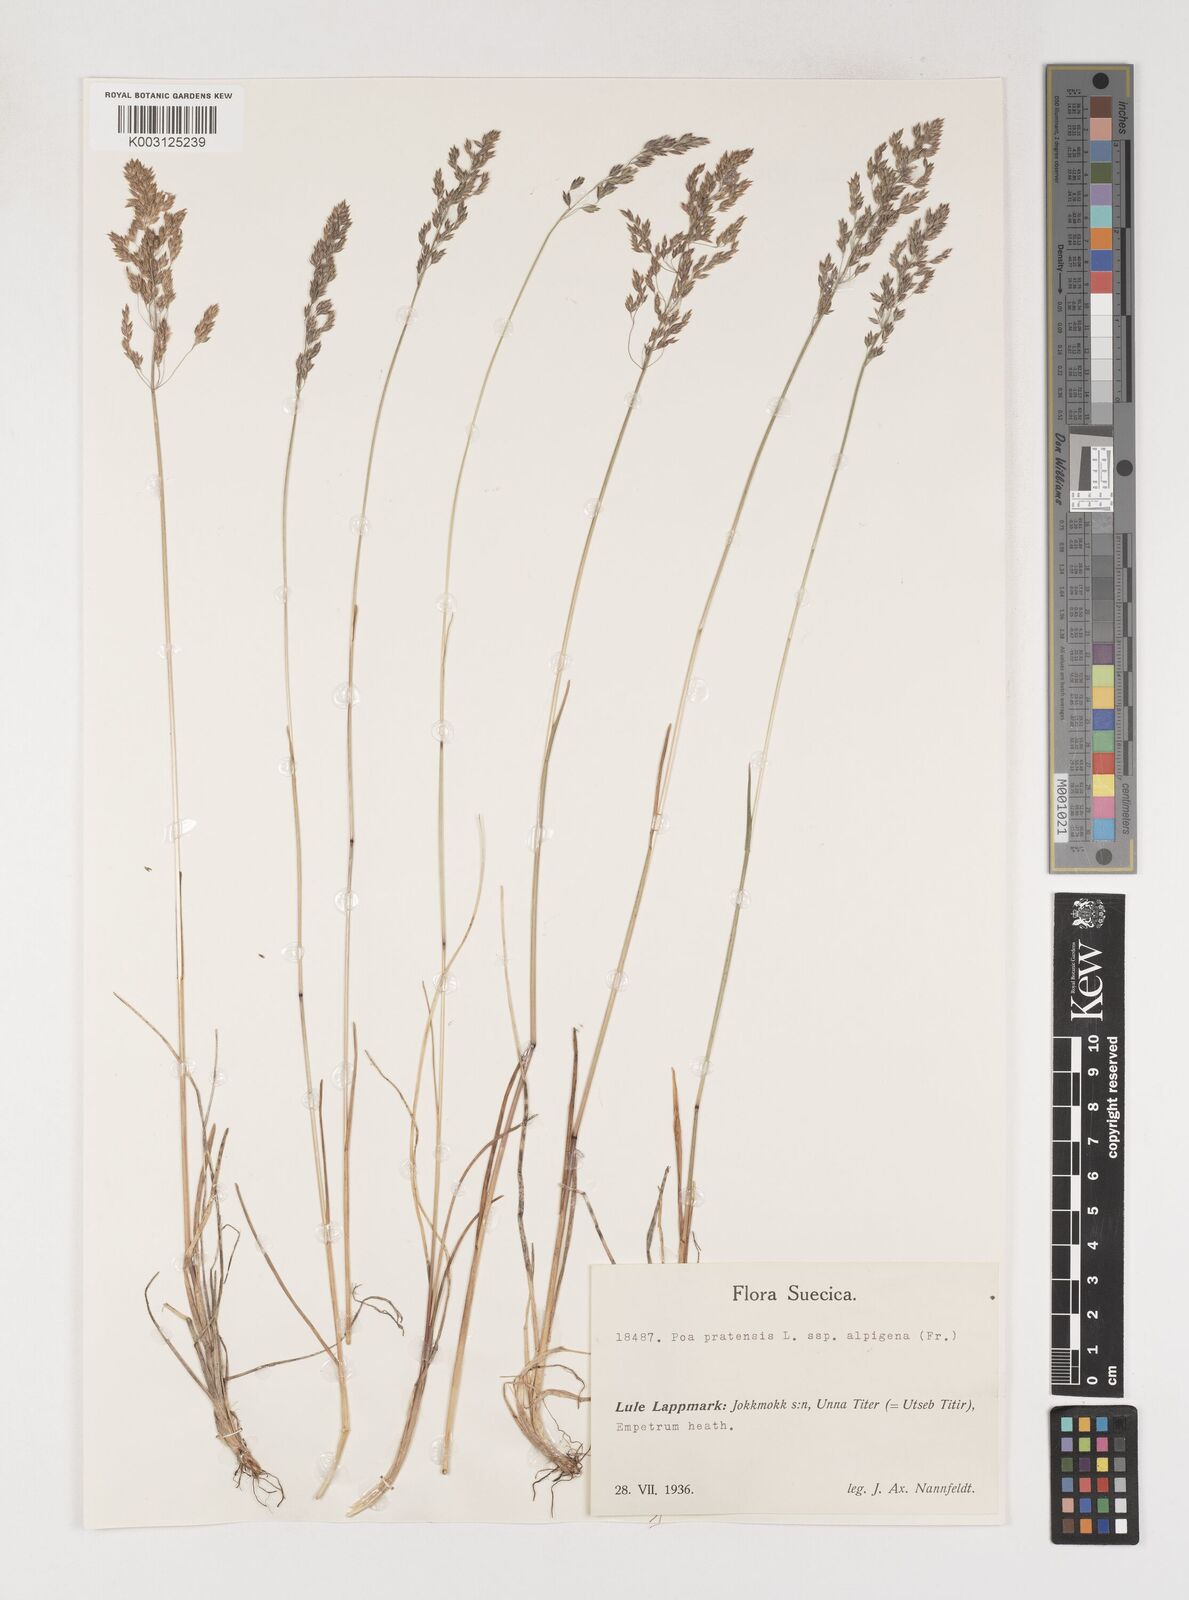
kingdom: Plantae
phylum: Tracheophyta
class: Liliopsida
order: Poales
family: Poaceae
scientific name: Poaceae
